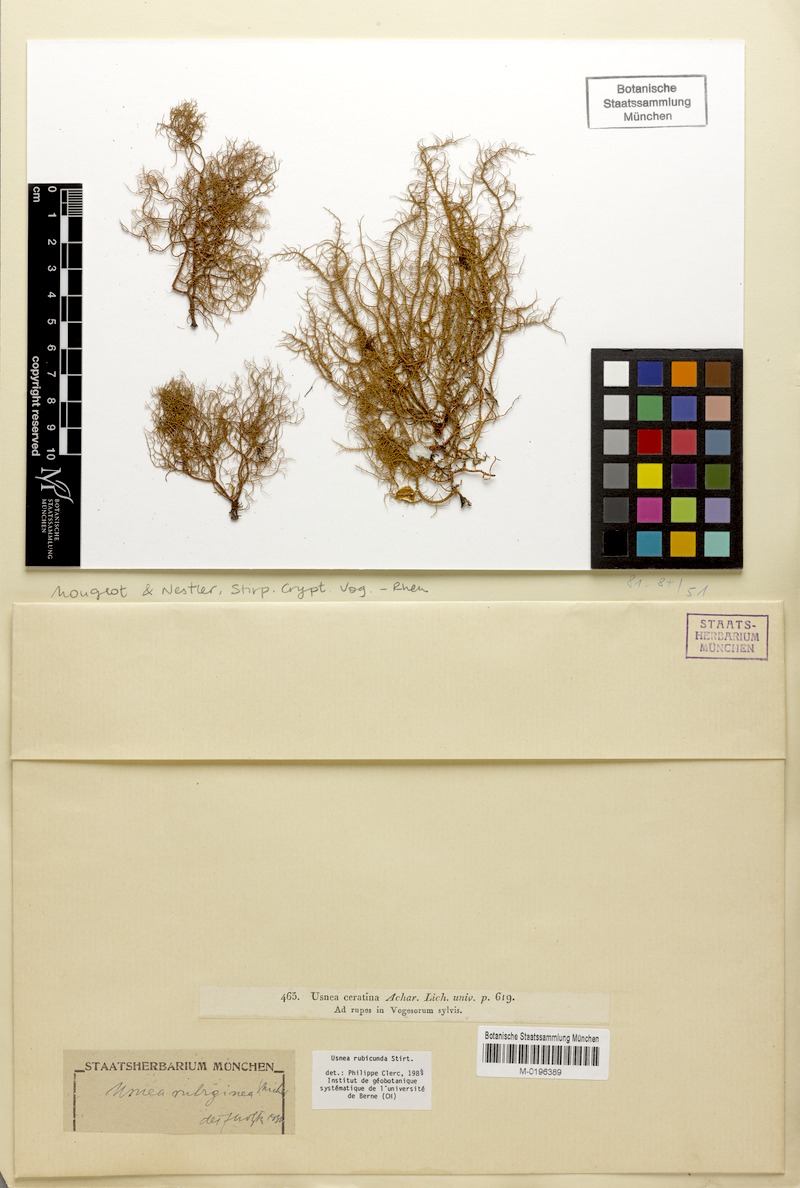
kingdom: Fungi
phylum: Ascomycota
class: Lecanoromycetes
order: Lecanorales
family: Parmeliaceae
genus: Usnea
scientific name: Usnea rubicunda
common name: Red beard lichen
